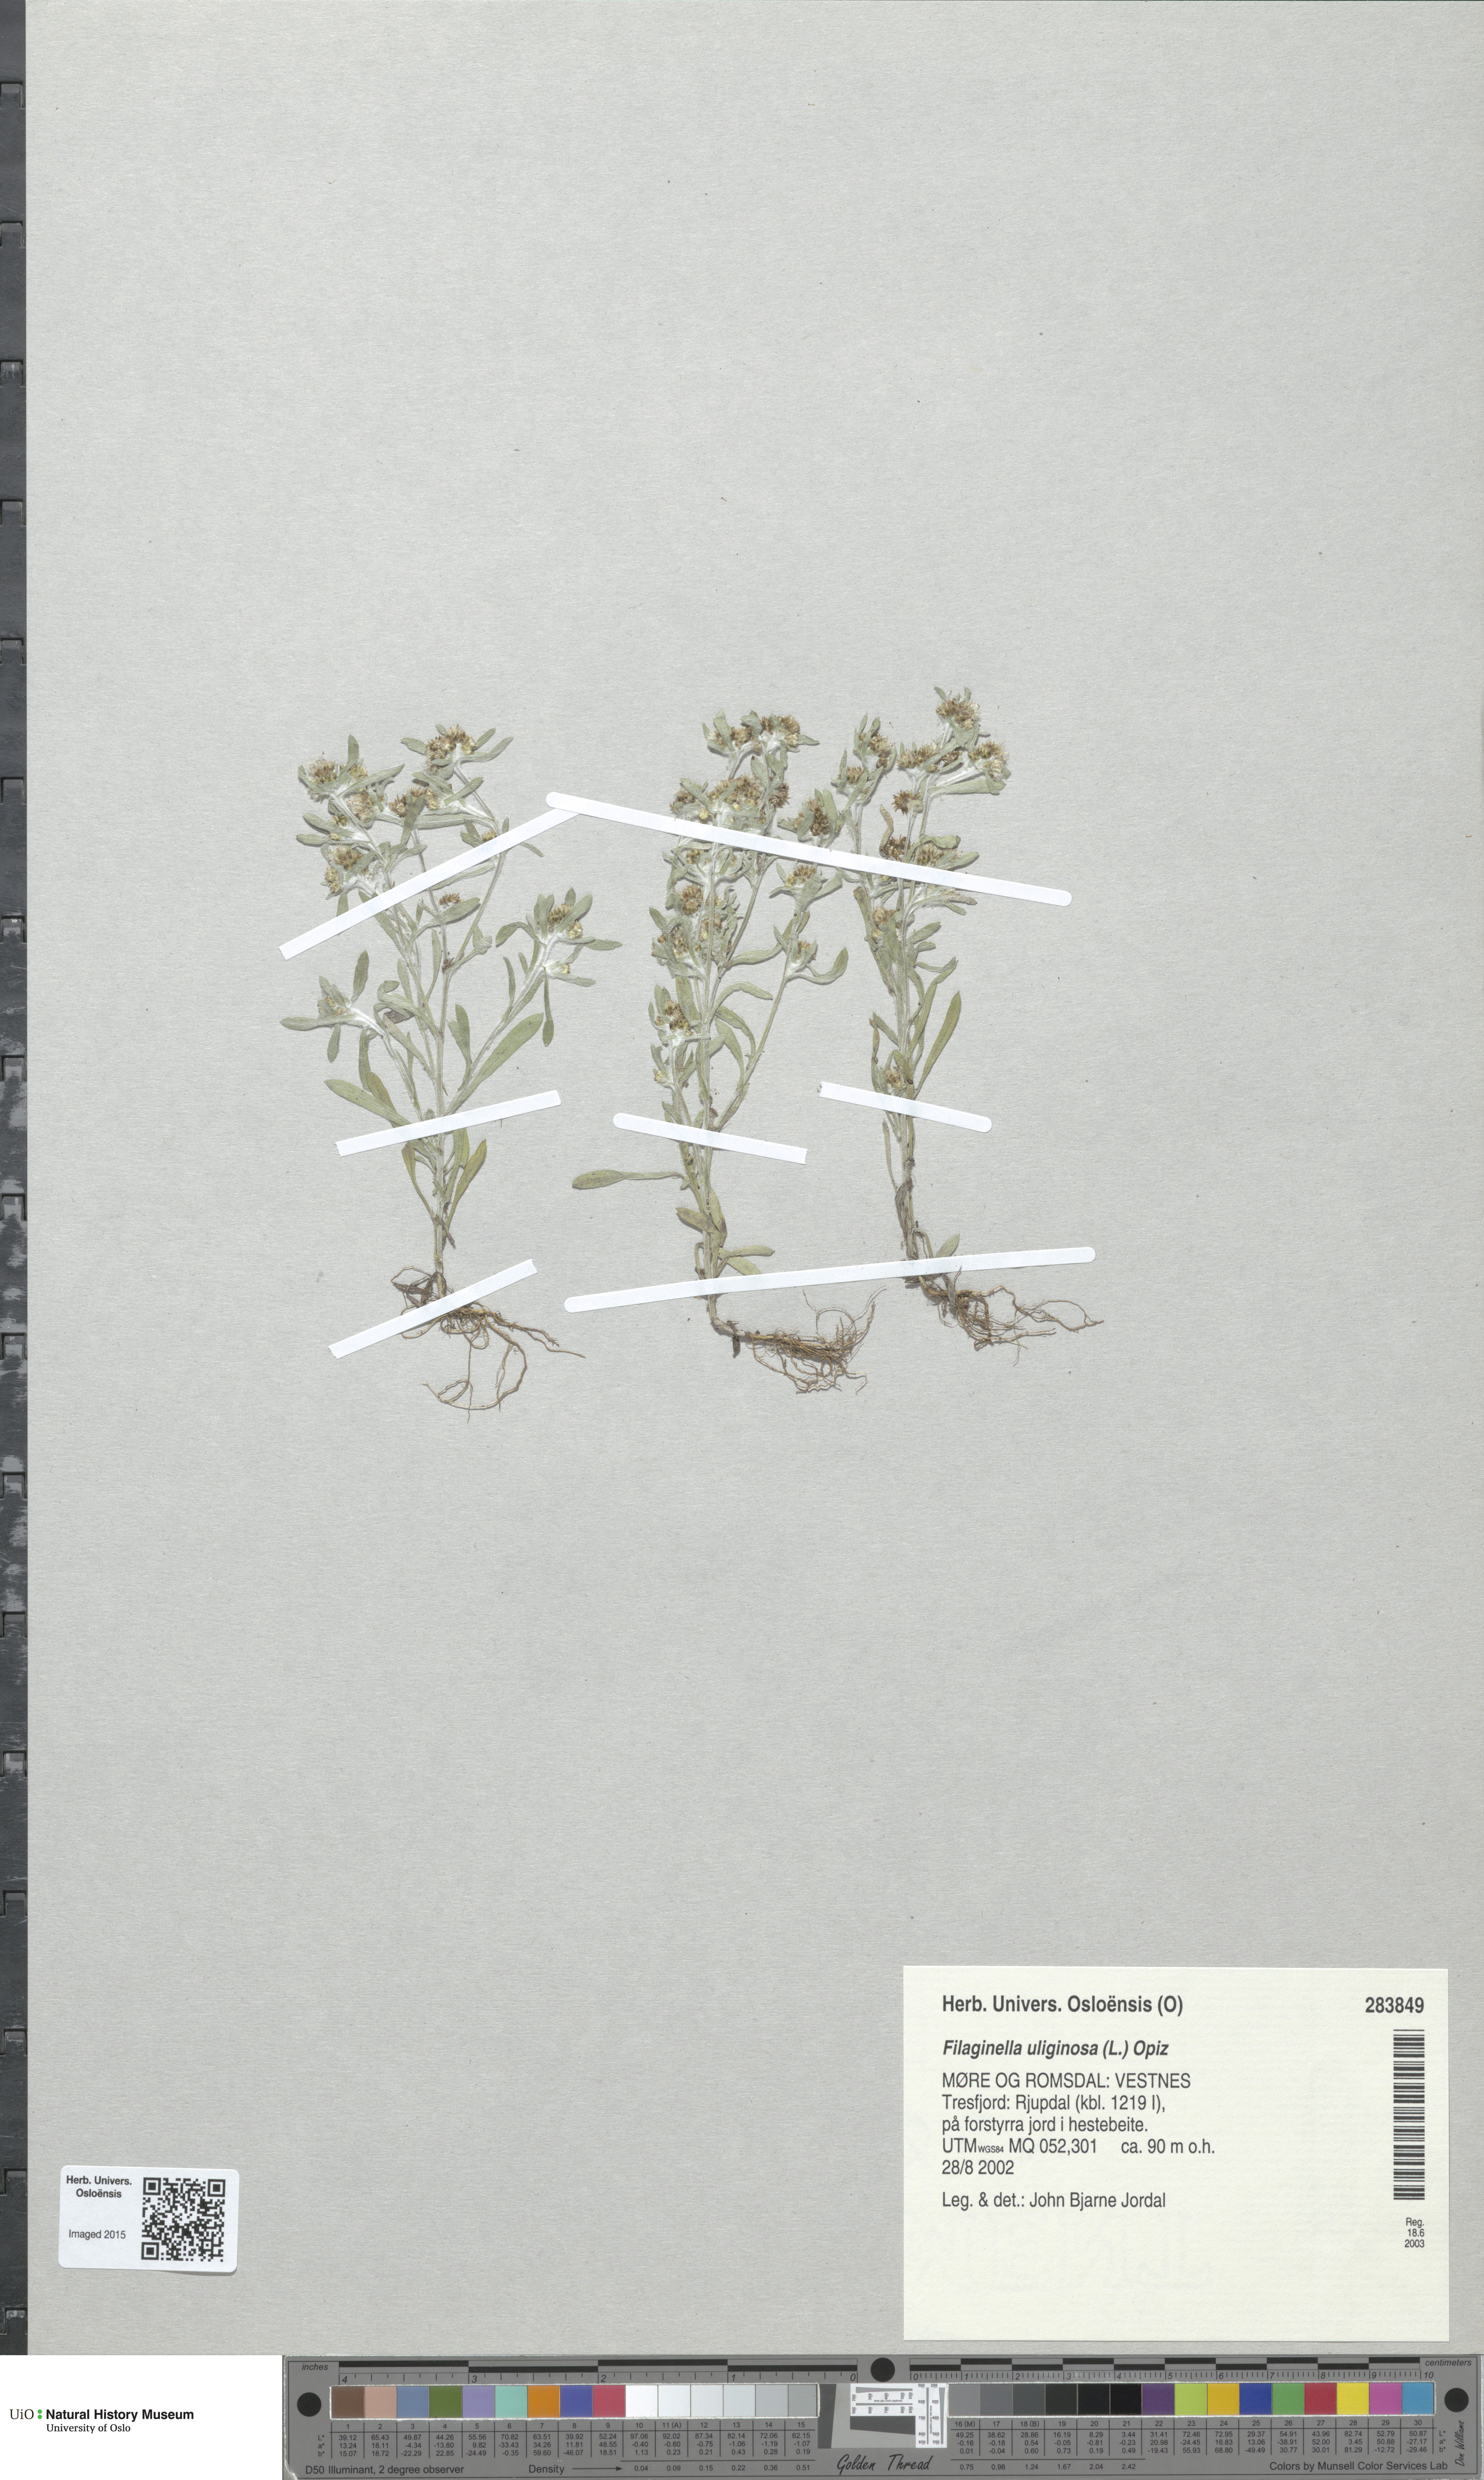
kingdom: Plantae
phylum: Tracheophyta
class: Magnoliopsida
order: Asterales
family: Asteraceae
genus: Gnaphalium
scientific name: Gnaphalium uliginosum
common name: Marsh cudweed
